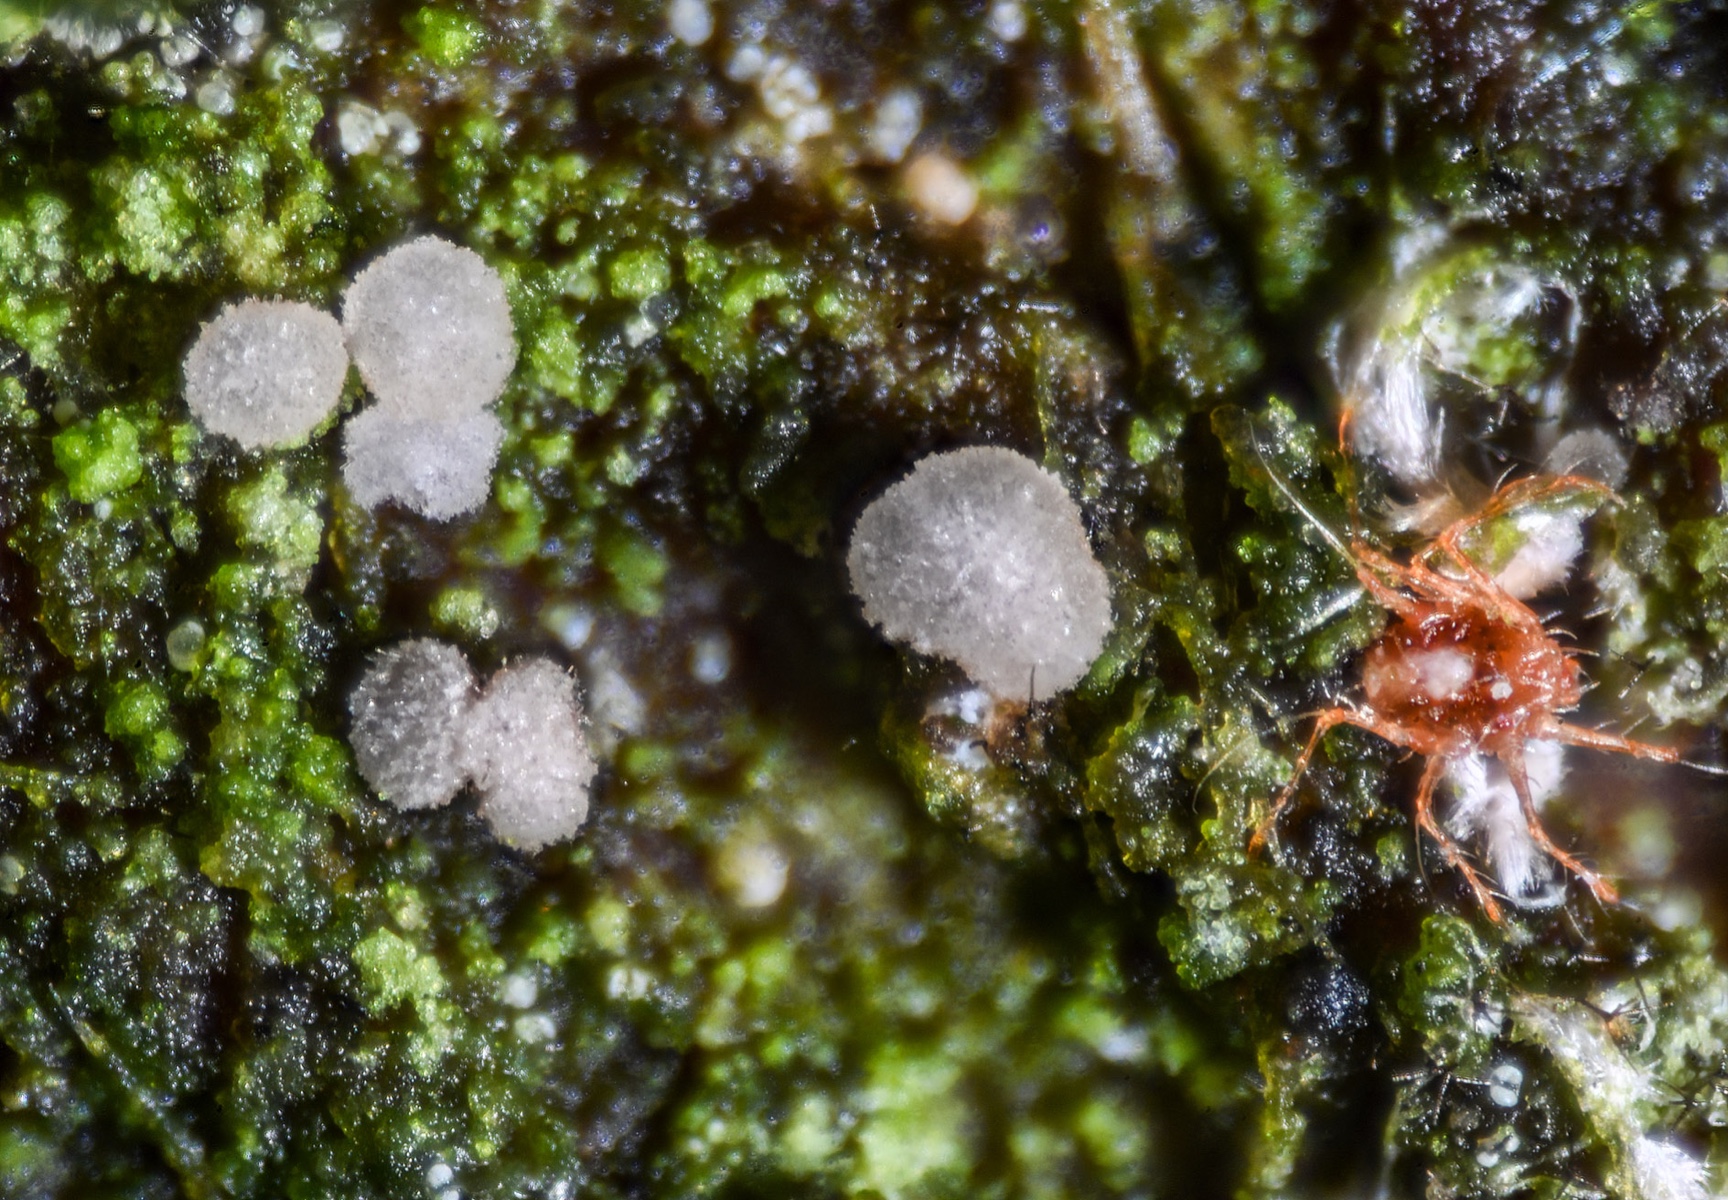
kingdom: Fungi
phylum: Ascomycota
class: Leotiomycetes
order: Helotiales
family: Hamatocanthoscyphaceae
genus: Ciliolarina
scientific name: Ciliolarina pinicola
